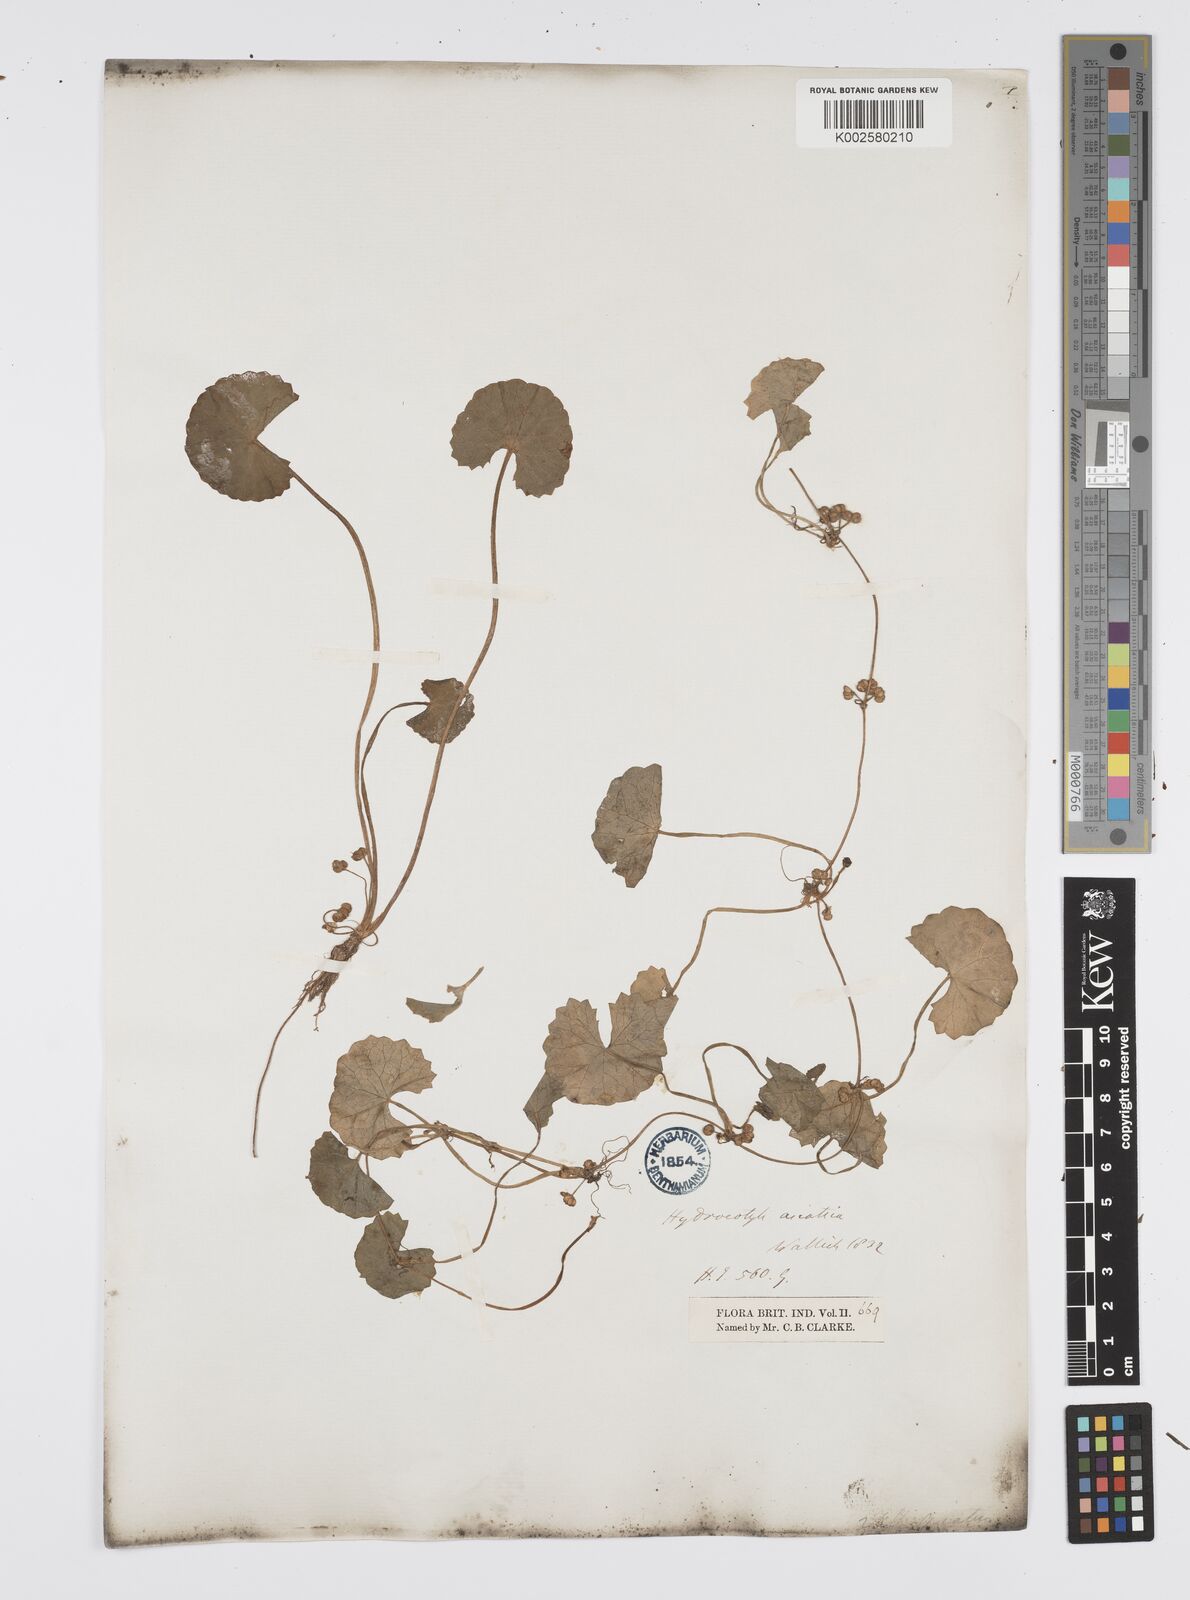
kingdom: Plantae
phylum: Tracheophyta
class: Magnoliopsida
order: Apiales
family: Apiaceae
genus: Centella
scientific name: Centella asiatica
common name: Spadeleaf
